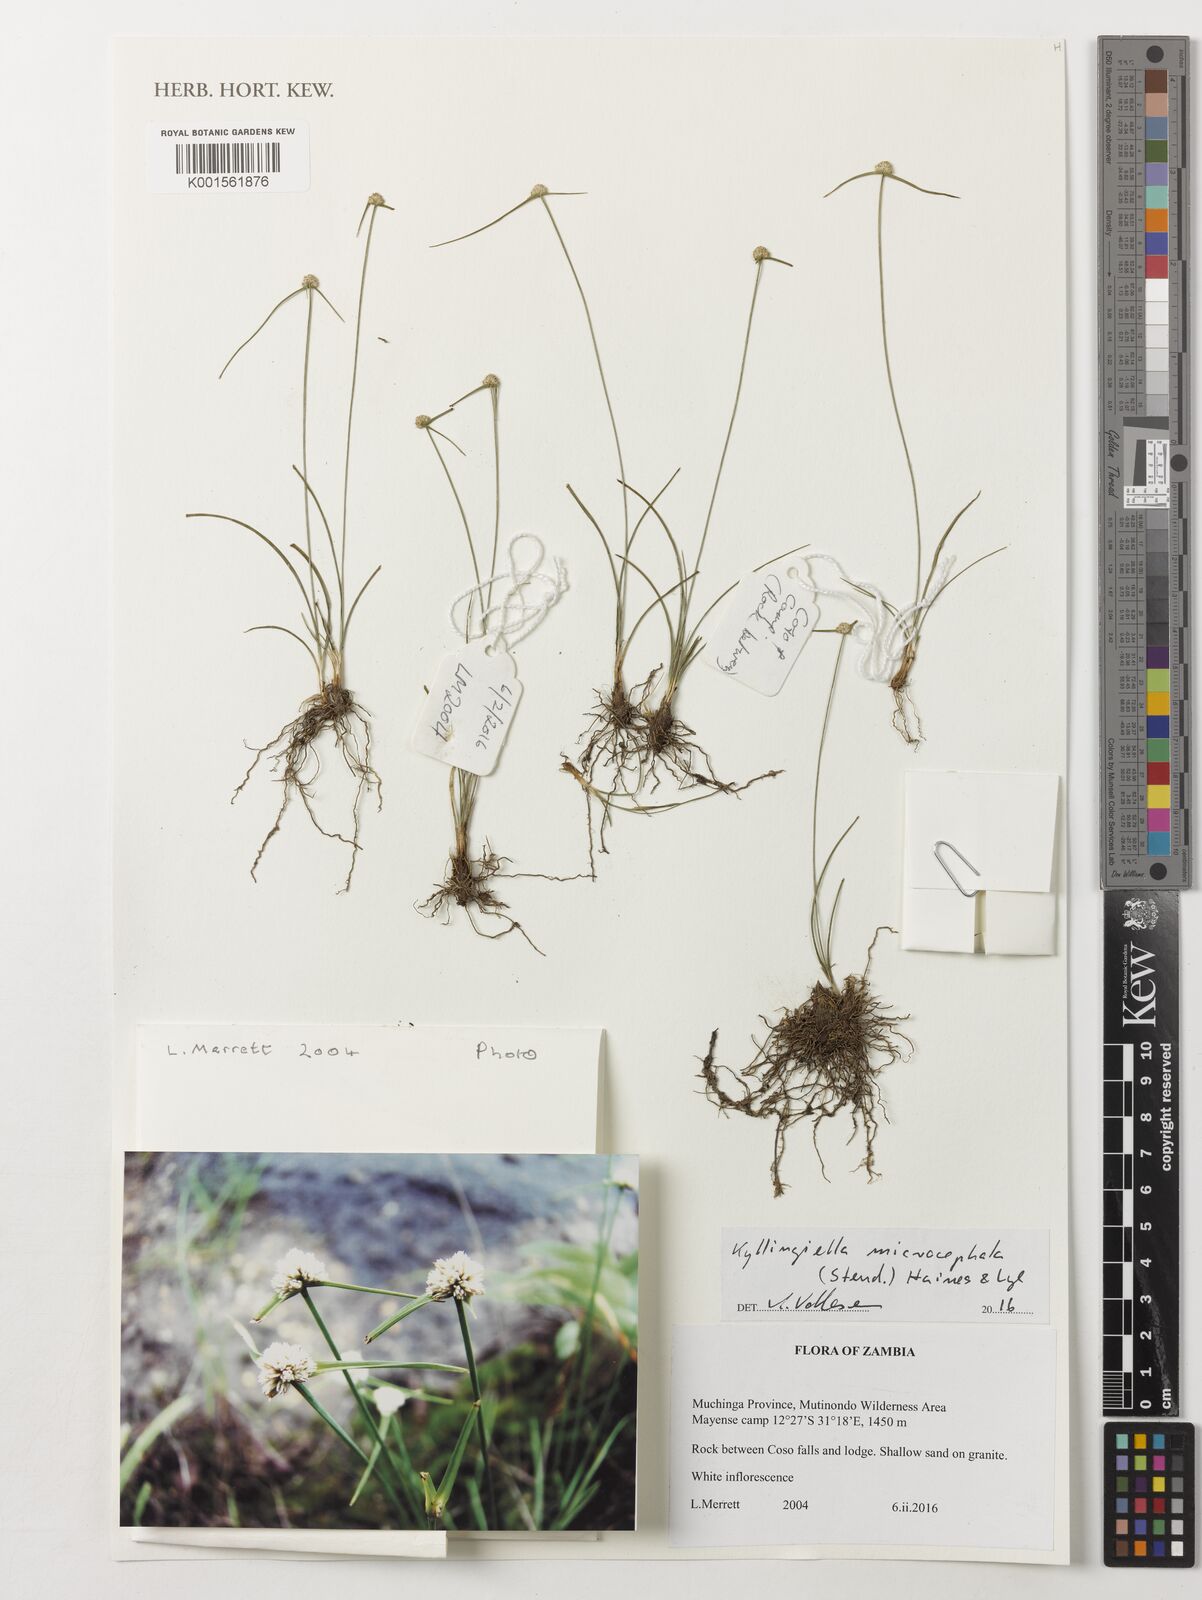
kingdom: Plantae
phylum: Tracheophyta
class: Liliopsida
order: Poales
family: Cyperaceae
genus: Cyperus
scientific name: Cyperus kyllingiella
